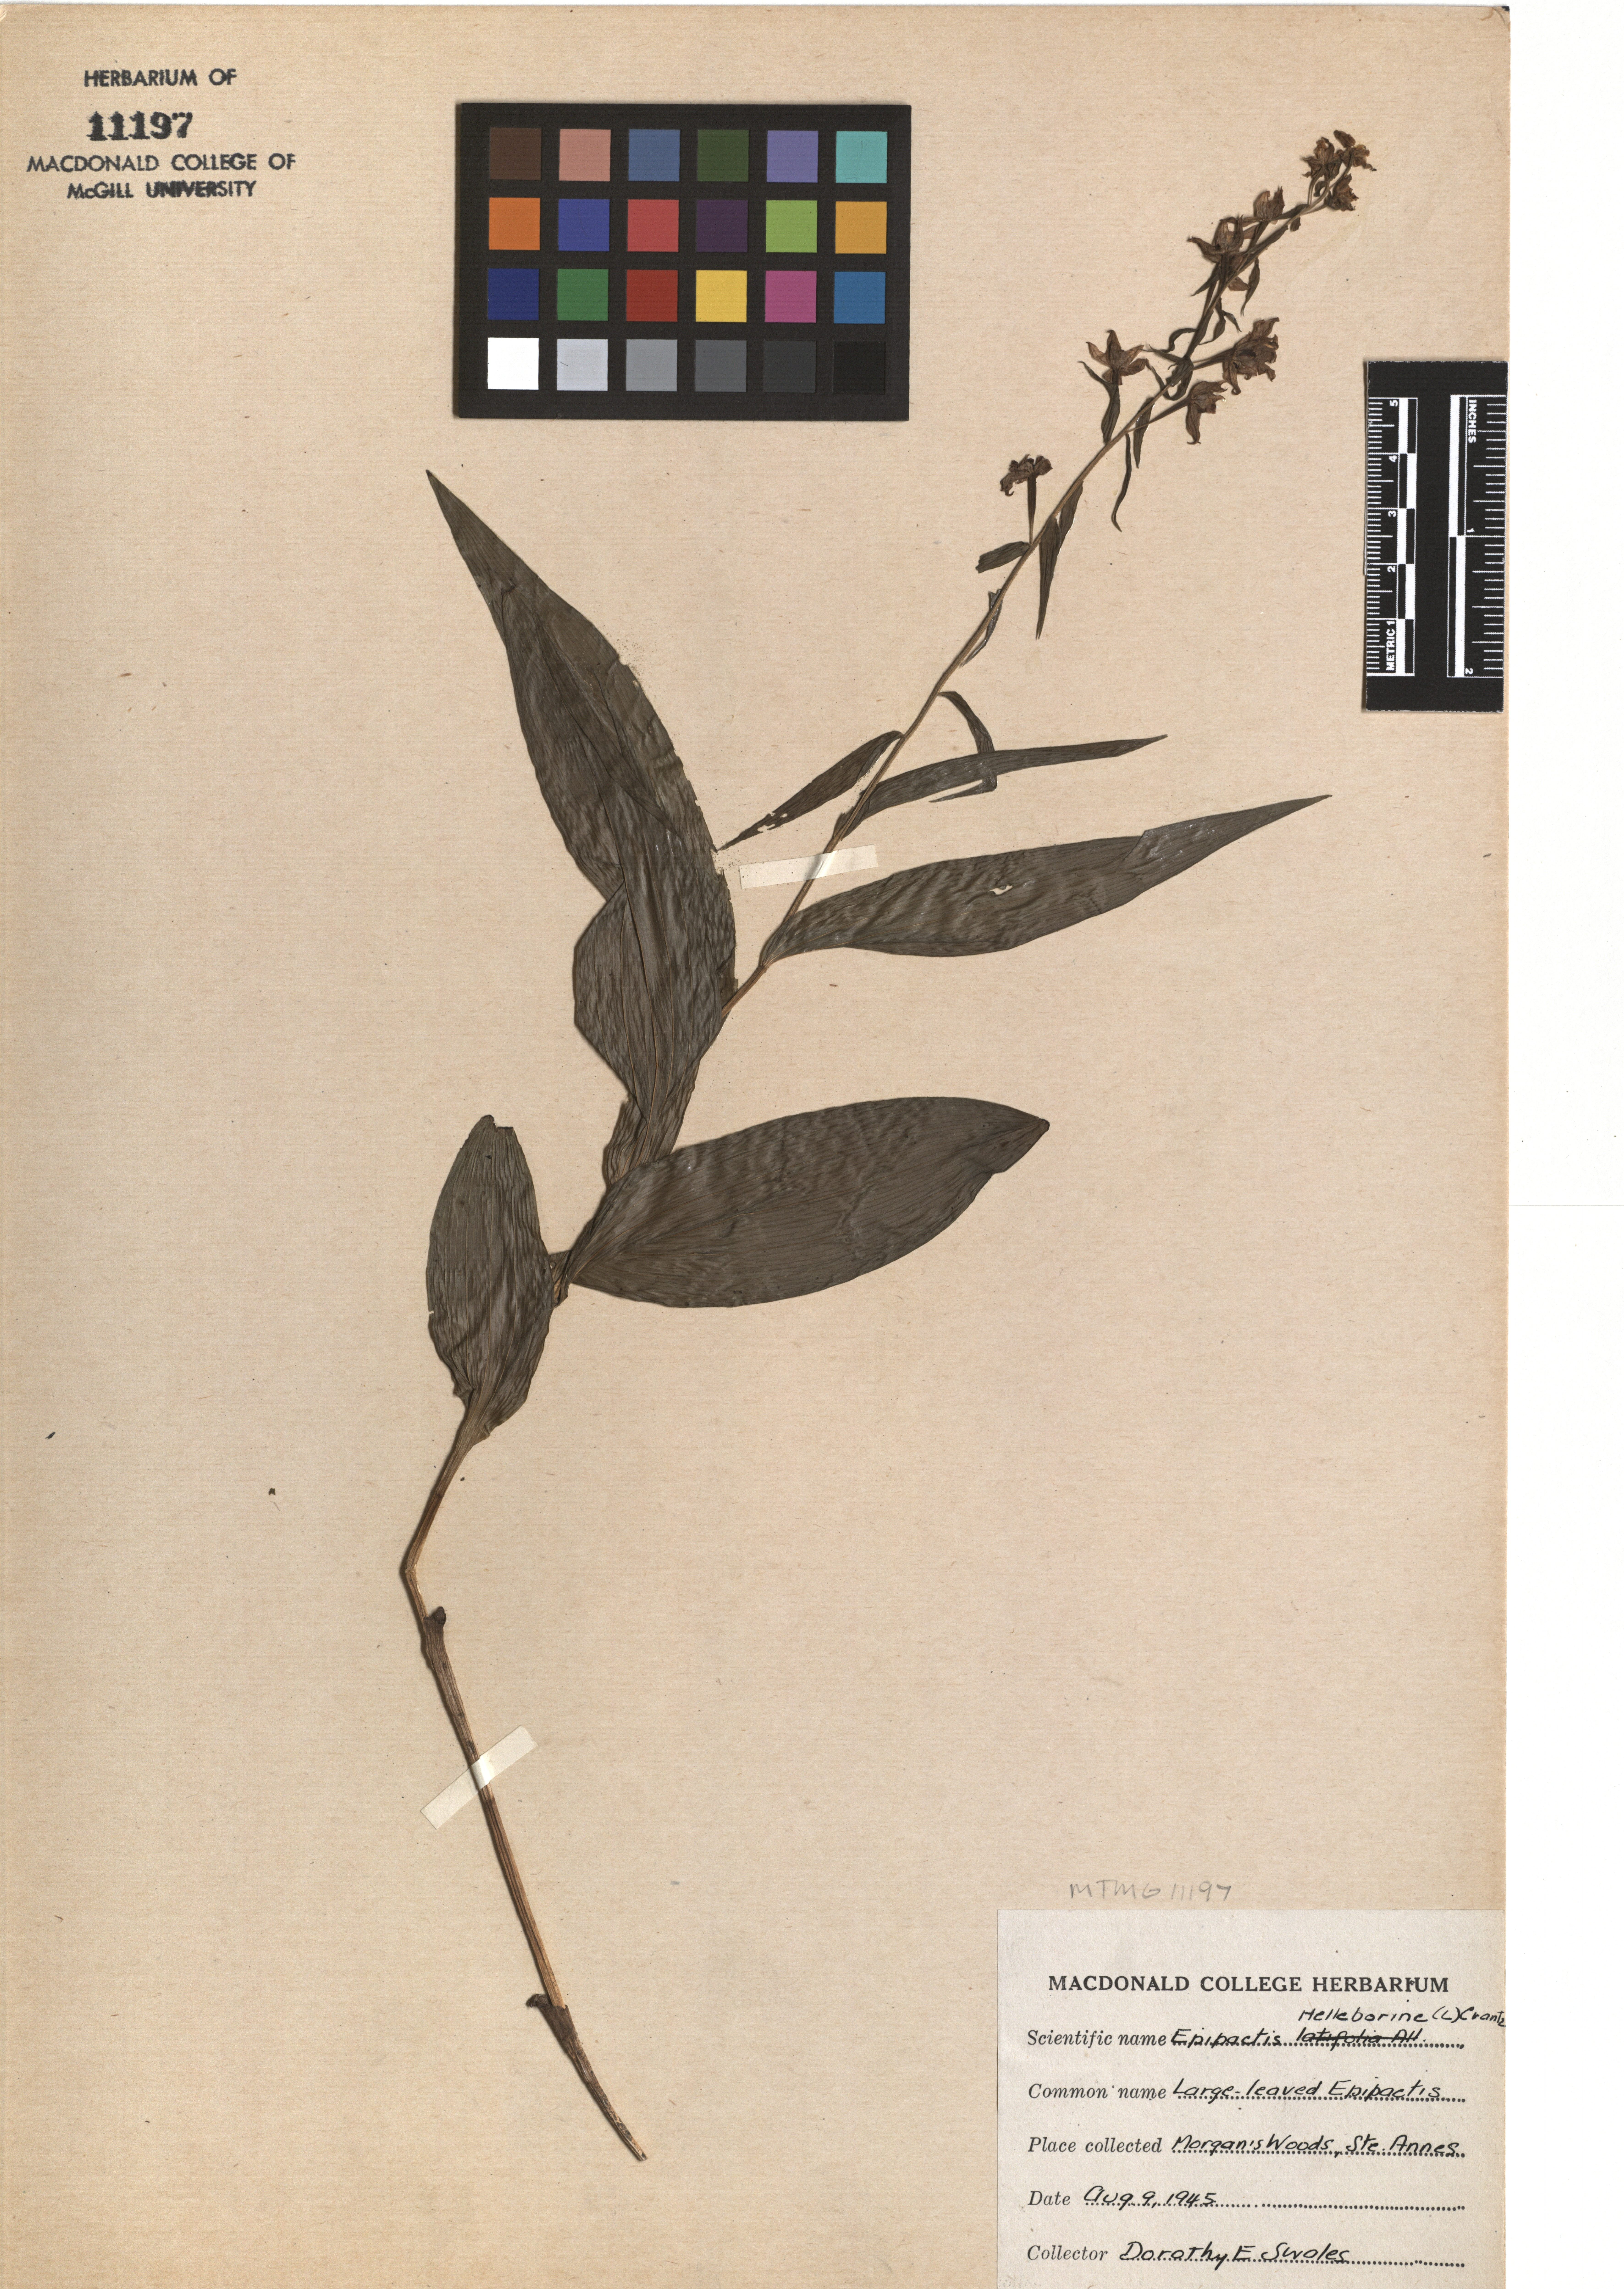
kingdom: Plantae
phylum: Tracheophyta
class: Liliopsida
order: Asparagales
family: Orchidaceae
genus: Epipactis
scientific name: Epipactis helleborine
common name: Broad-leaved helleborine
